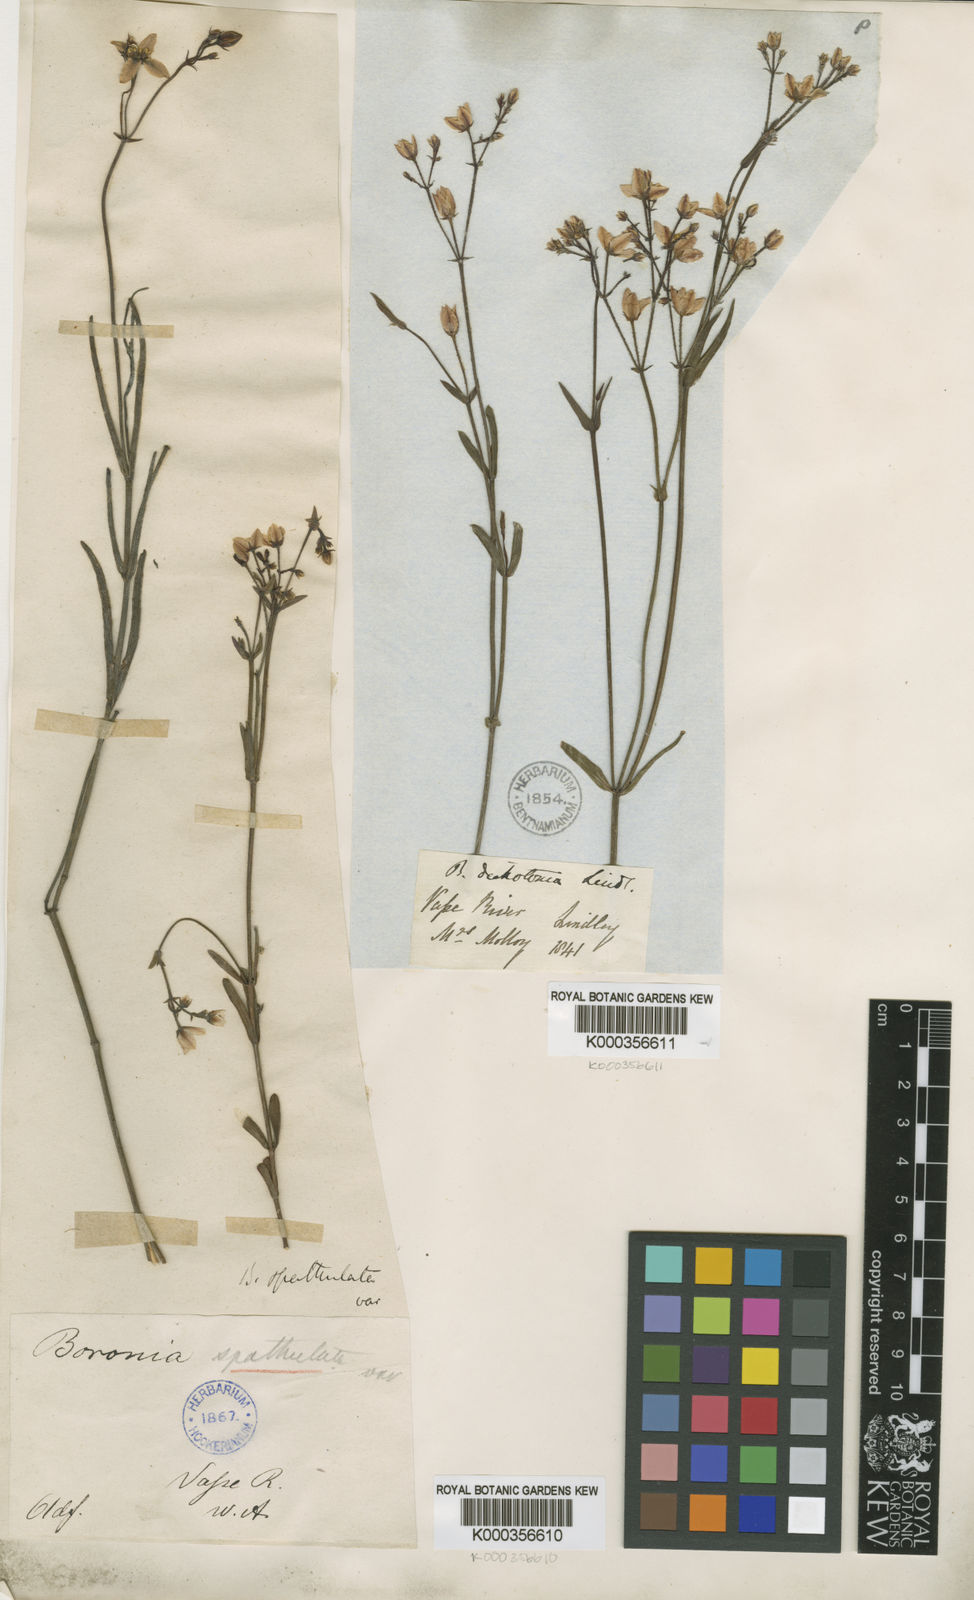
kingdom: Plantae
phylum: Tracheophyta
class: Magnoliopsida
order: Sapindales
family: Rutaceae
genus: Boronia
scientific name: Boronia
